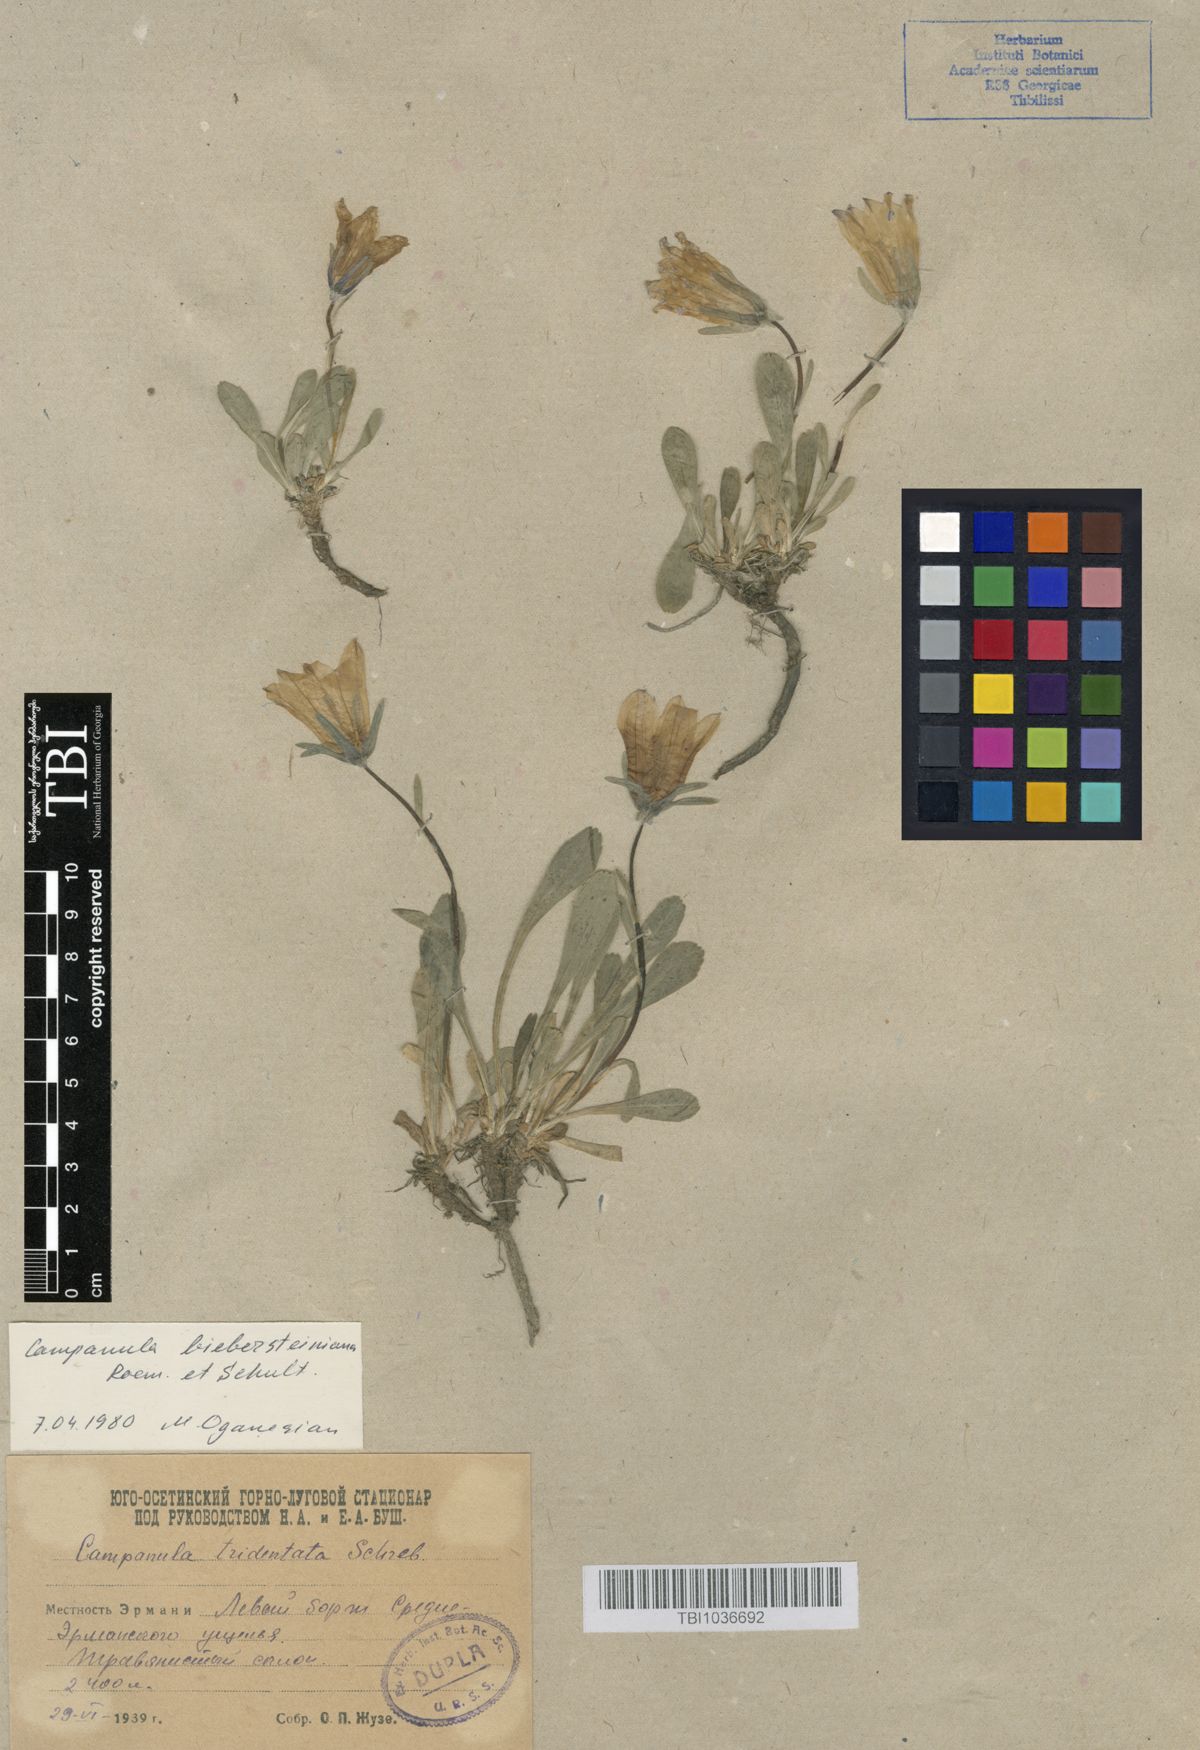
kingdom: Plantae
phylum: Tracheophyta
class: Magnoliopsida
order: Asterales
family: Campanulaceae
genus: Campanula
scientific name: Campanula tridentata
